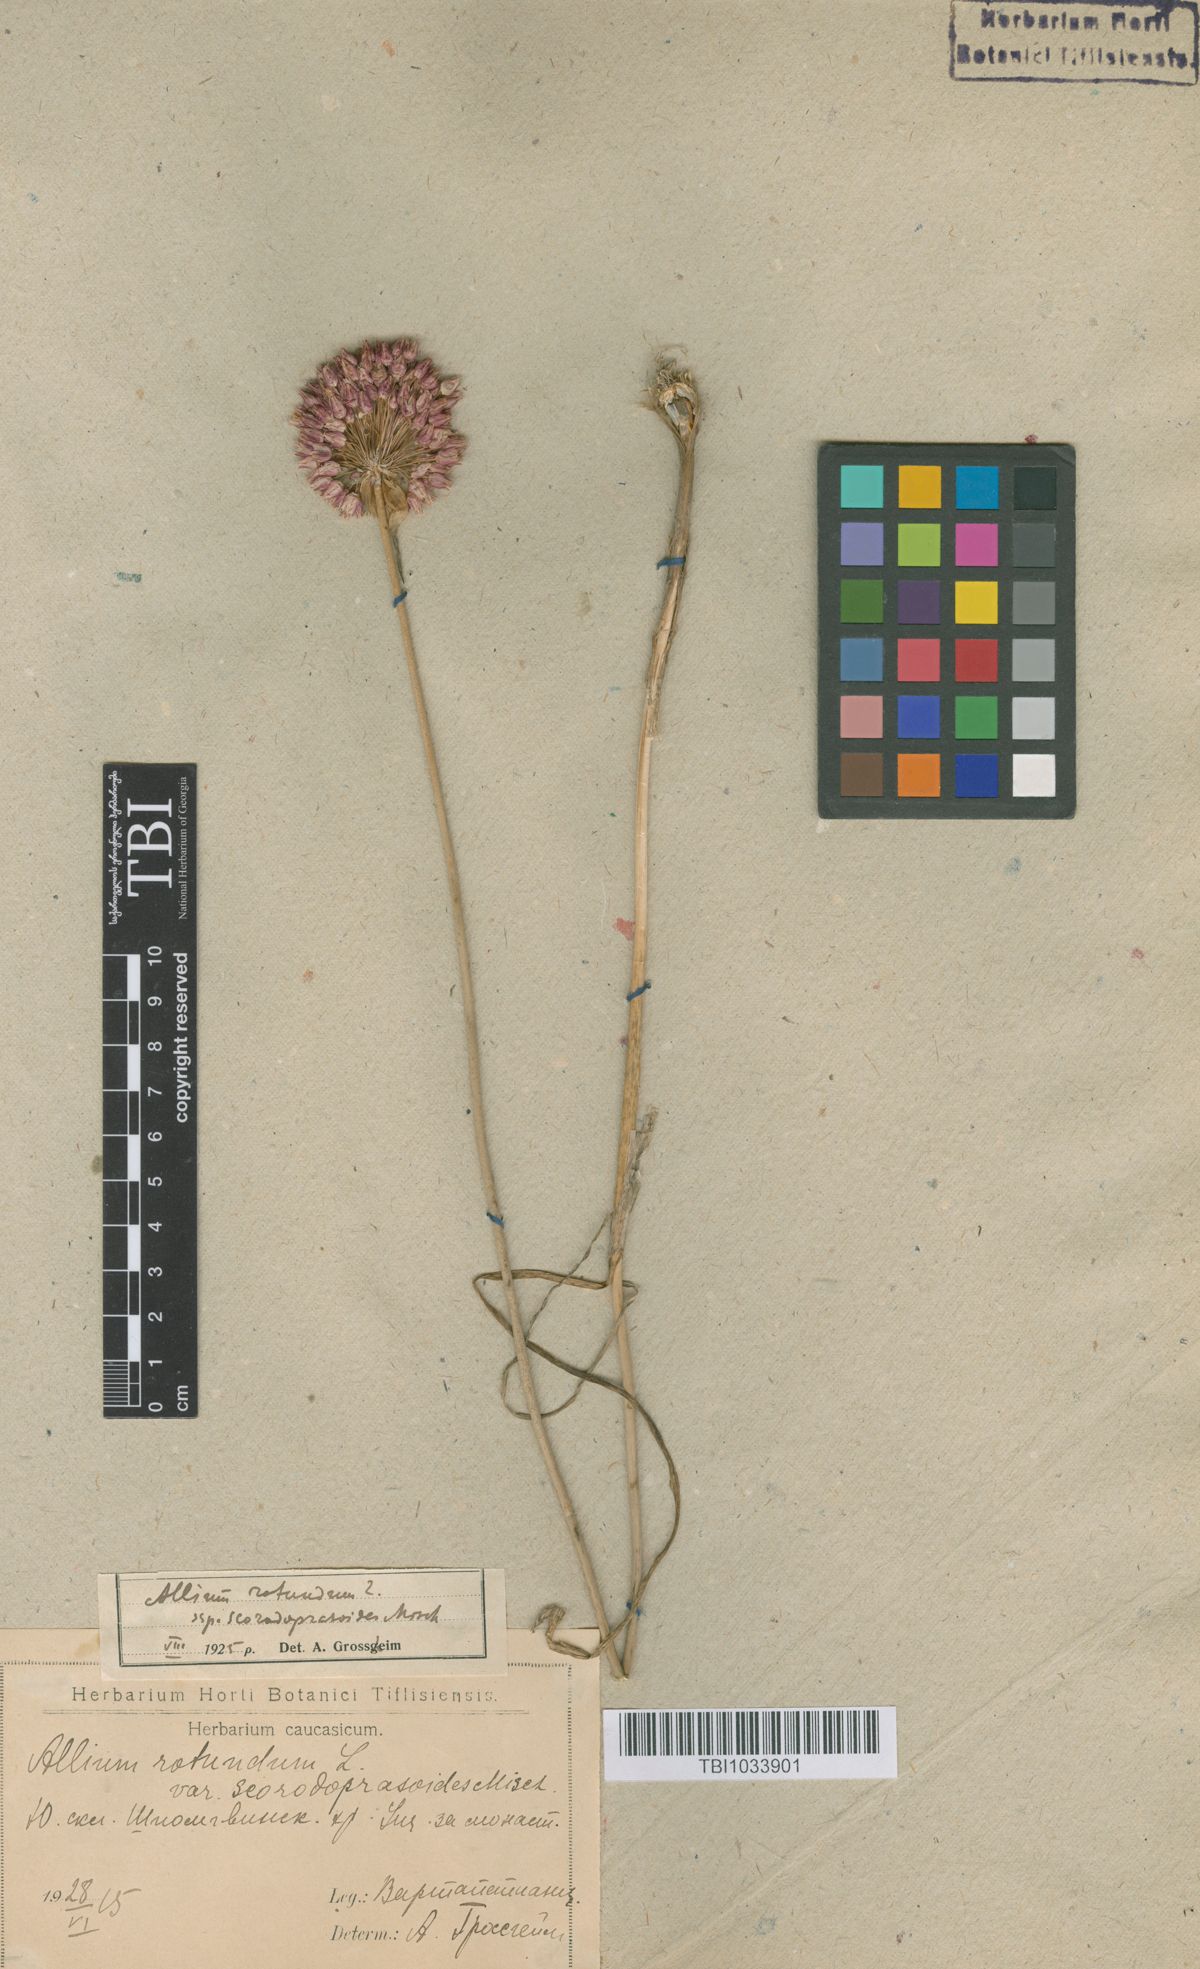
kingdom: Plantae
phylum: Tracheophyta
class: Liliopsida
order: Asparagales
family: Amaryllidaceae
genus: Allium
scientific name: Allium rotundum
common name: Sand leek
